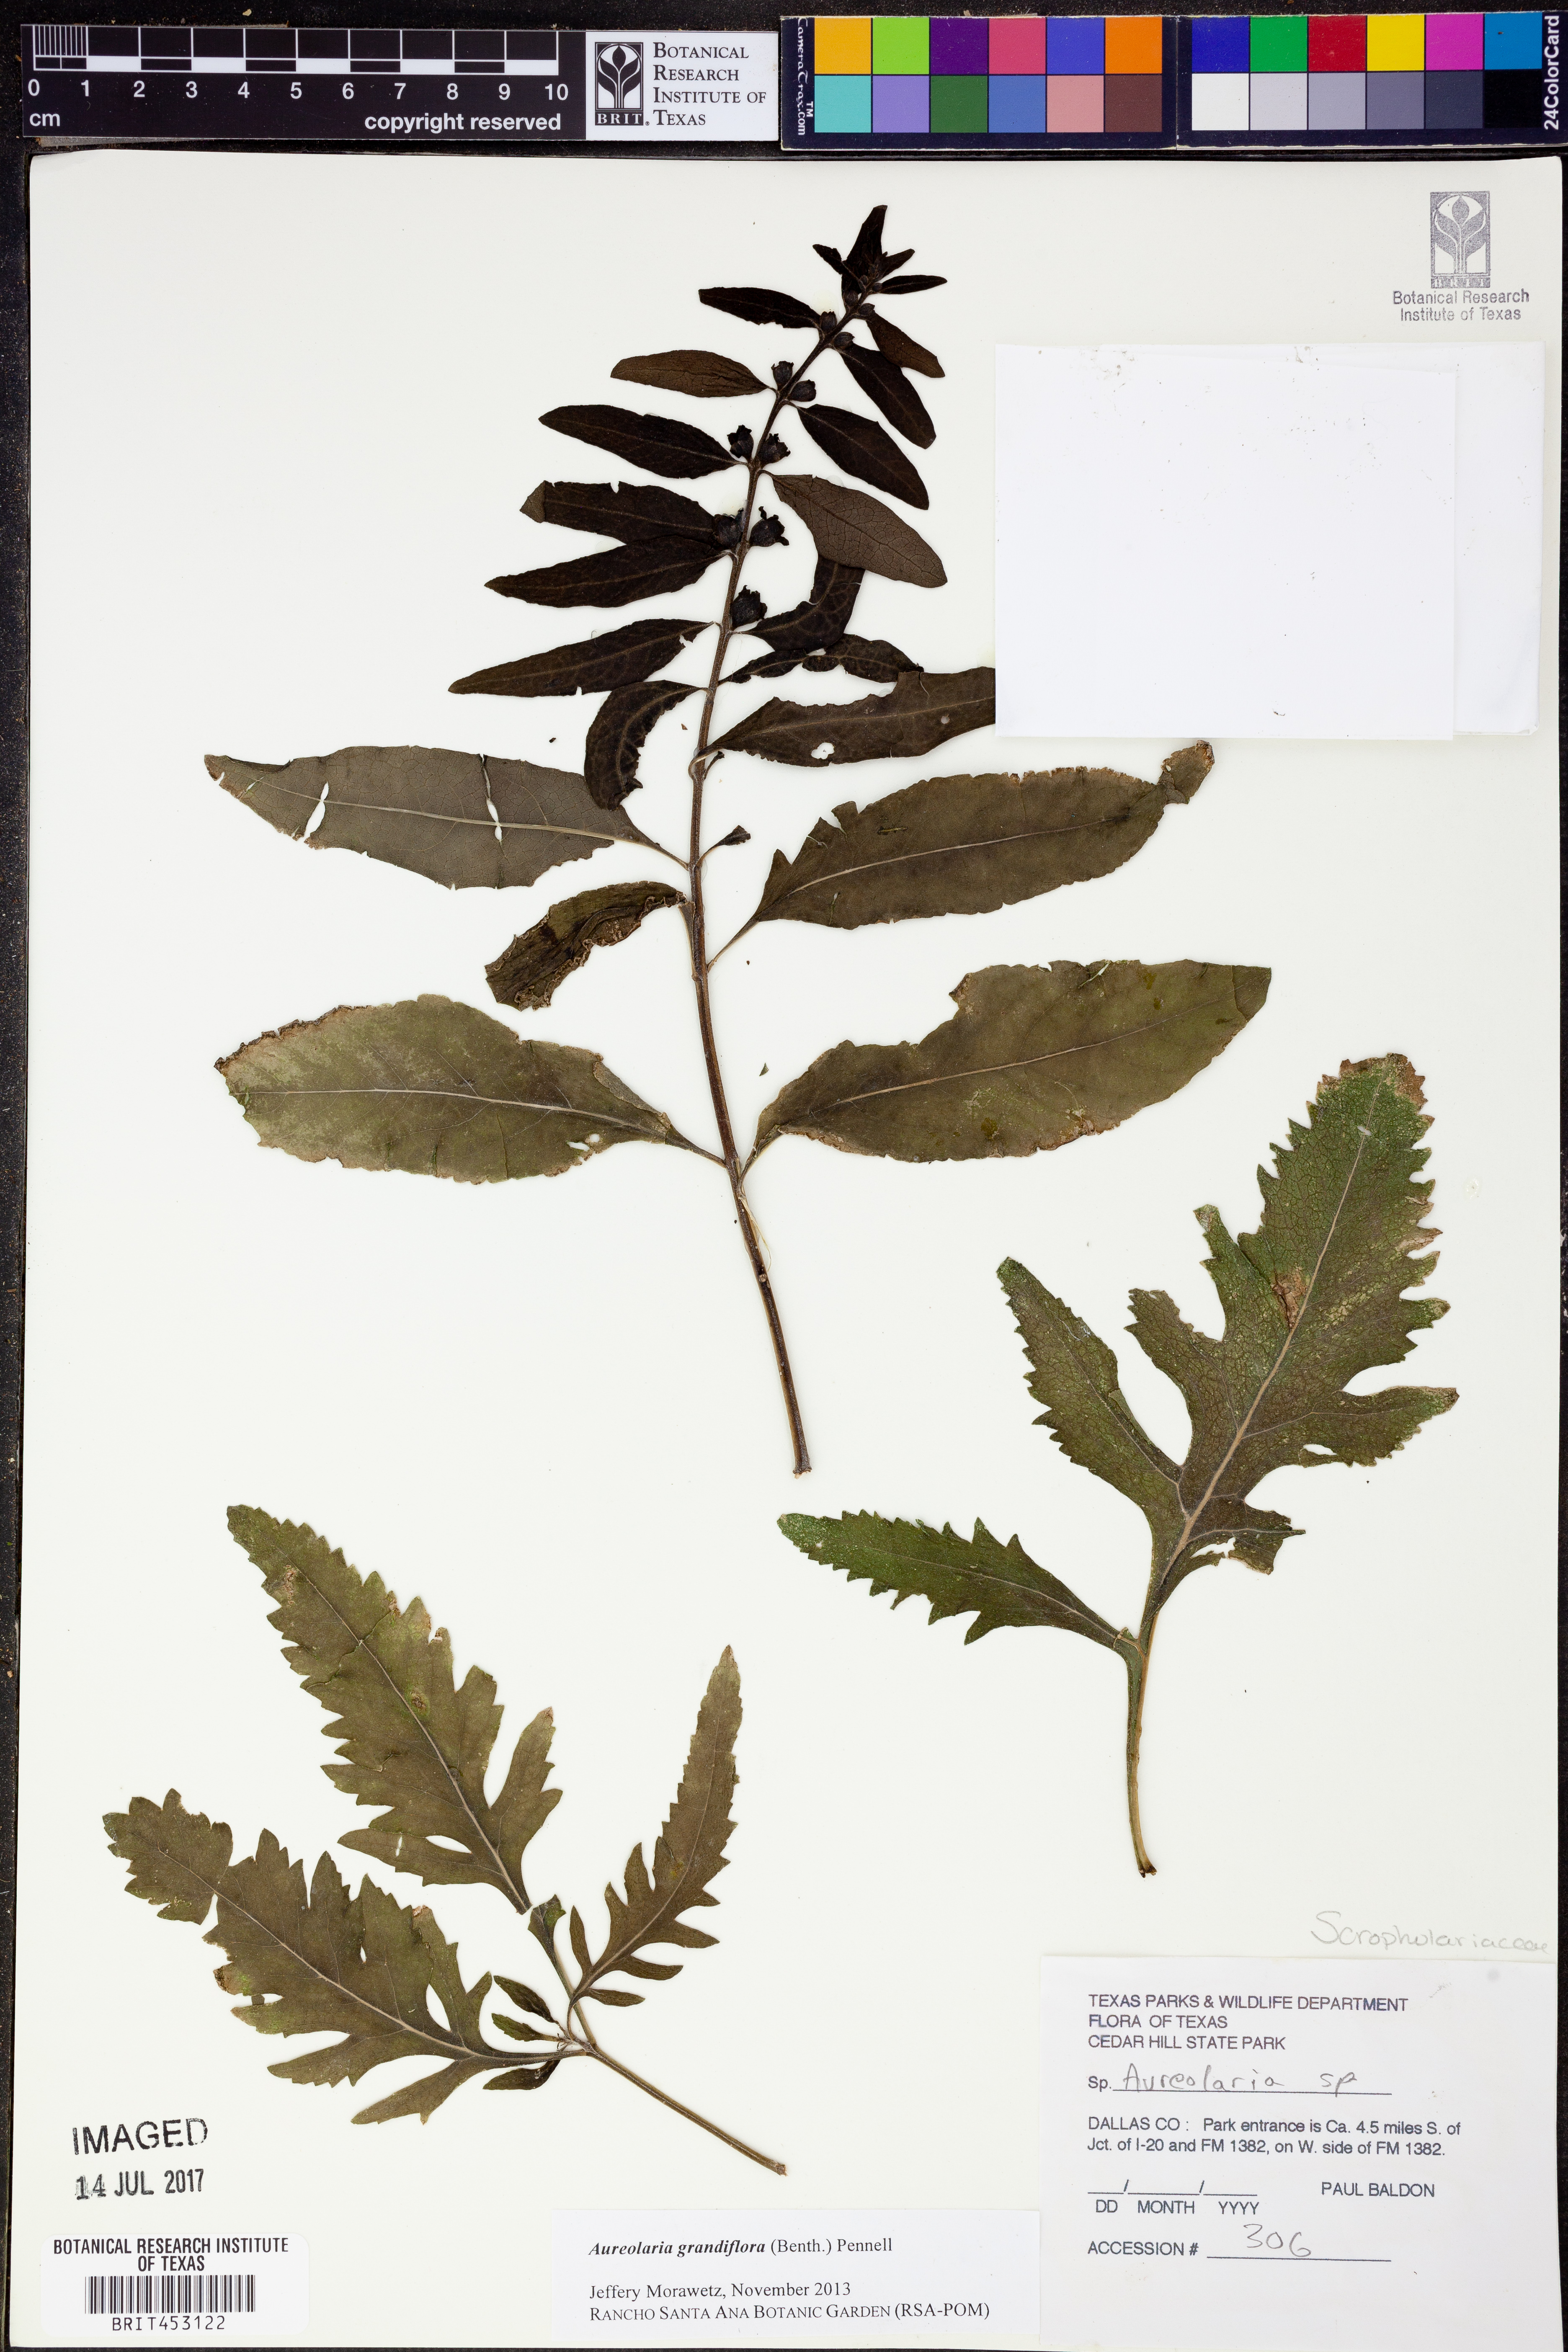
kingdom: Plantae
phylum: Tracheophyta
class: Magnoliopsida
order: Lamiales
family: Orobanchaceae
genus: Aureolaria
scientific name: Aureolaria grandiflora
